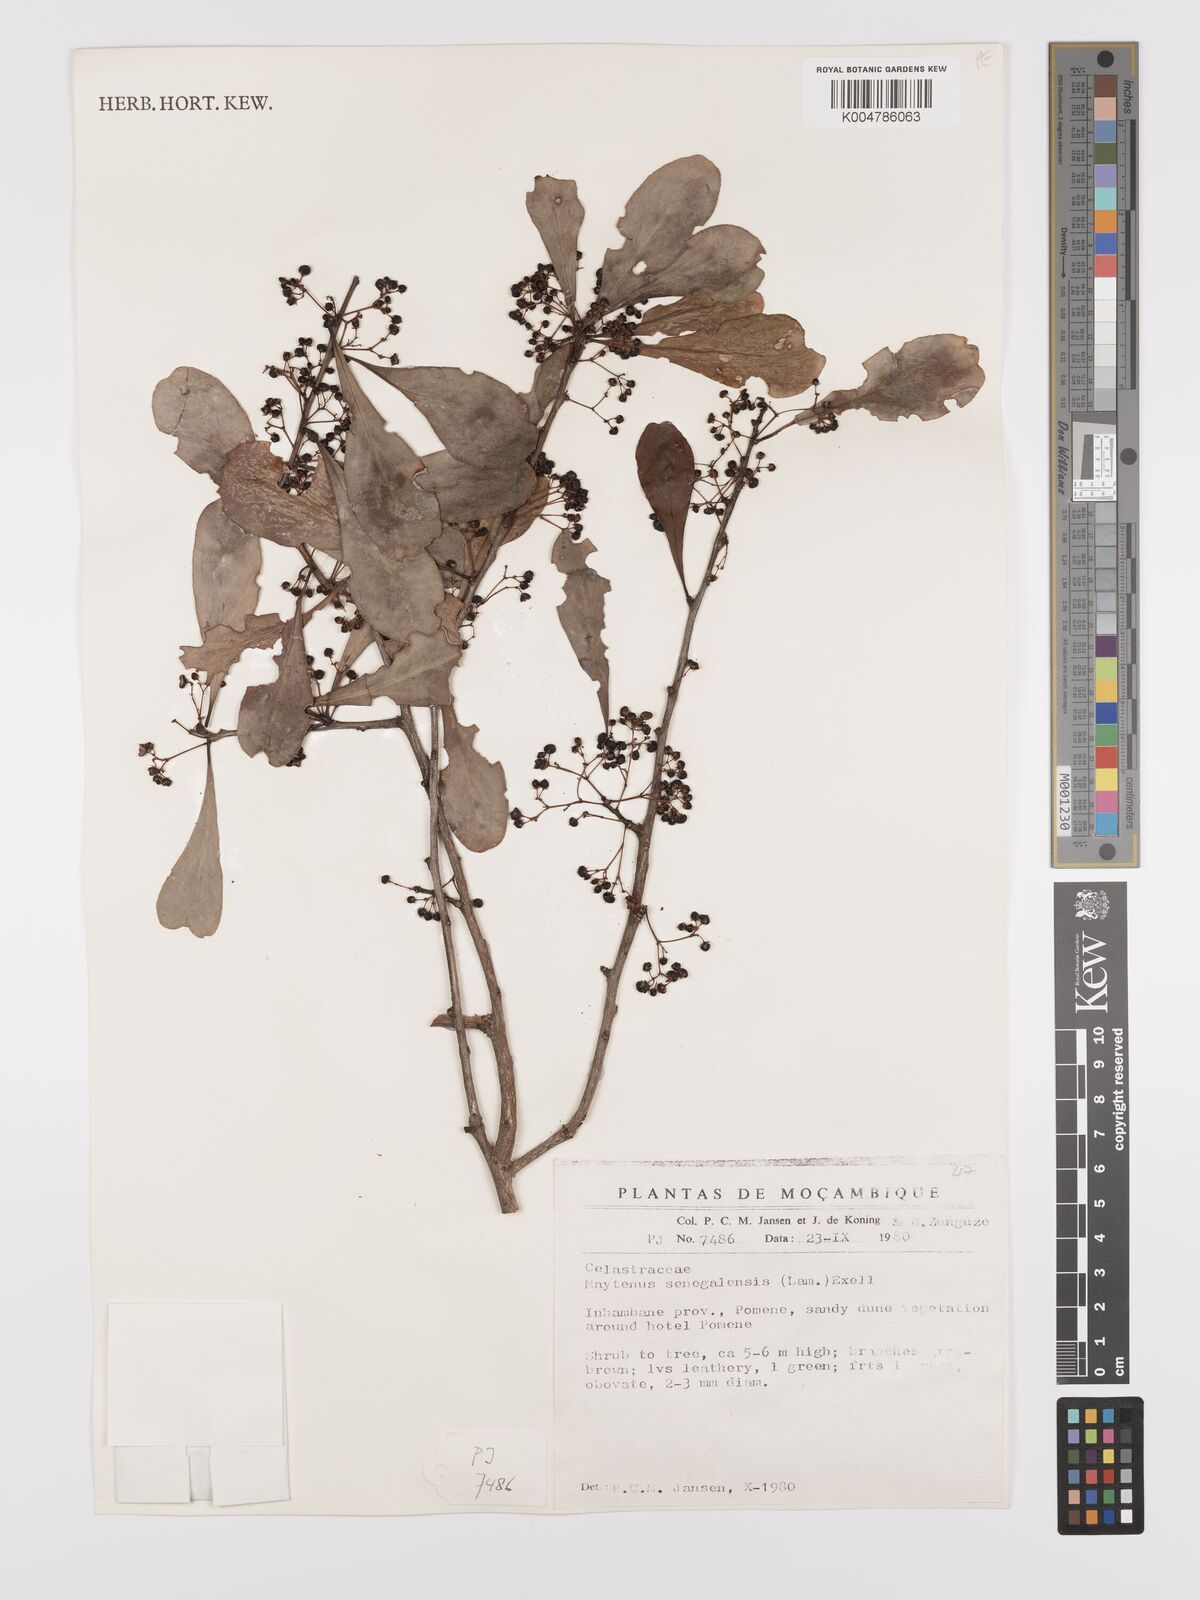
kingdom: Plantae
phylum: Tracheophyta
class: Magnoliopsida
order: Celastrales
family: Celastraceae
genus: Gymnosporia
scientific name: Gymnosporia senegalensis
